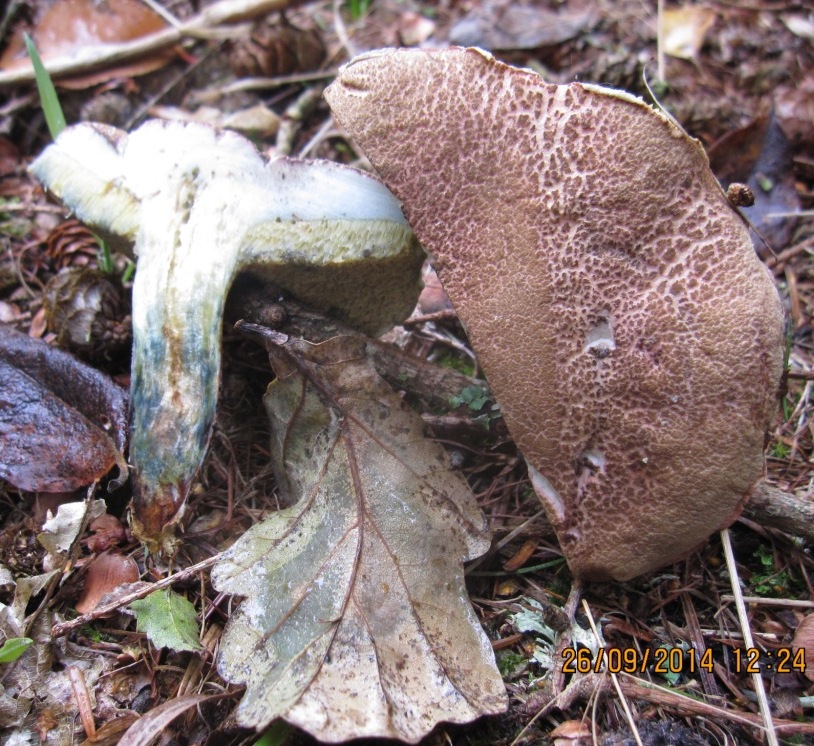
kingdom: Fungi
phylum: Basidiomycota
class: Agaricomycetes
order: Boletales
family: Boletaceae
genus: Xerocomellus
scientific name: Xerocomellus cisalpinus
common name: finsprukken rørhat
